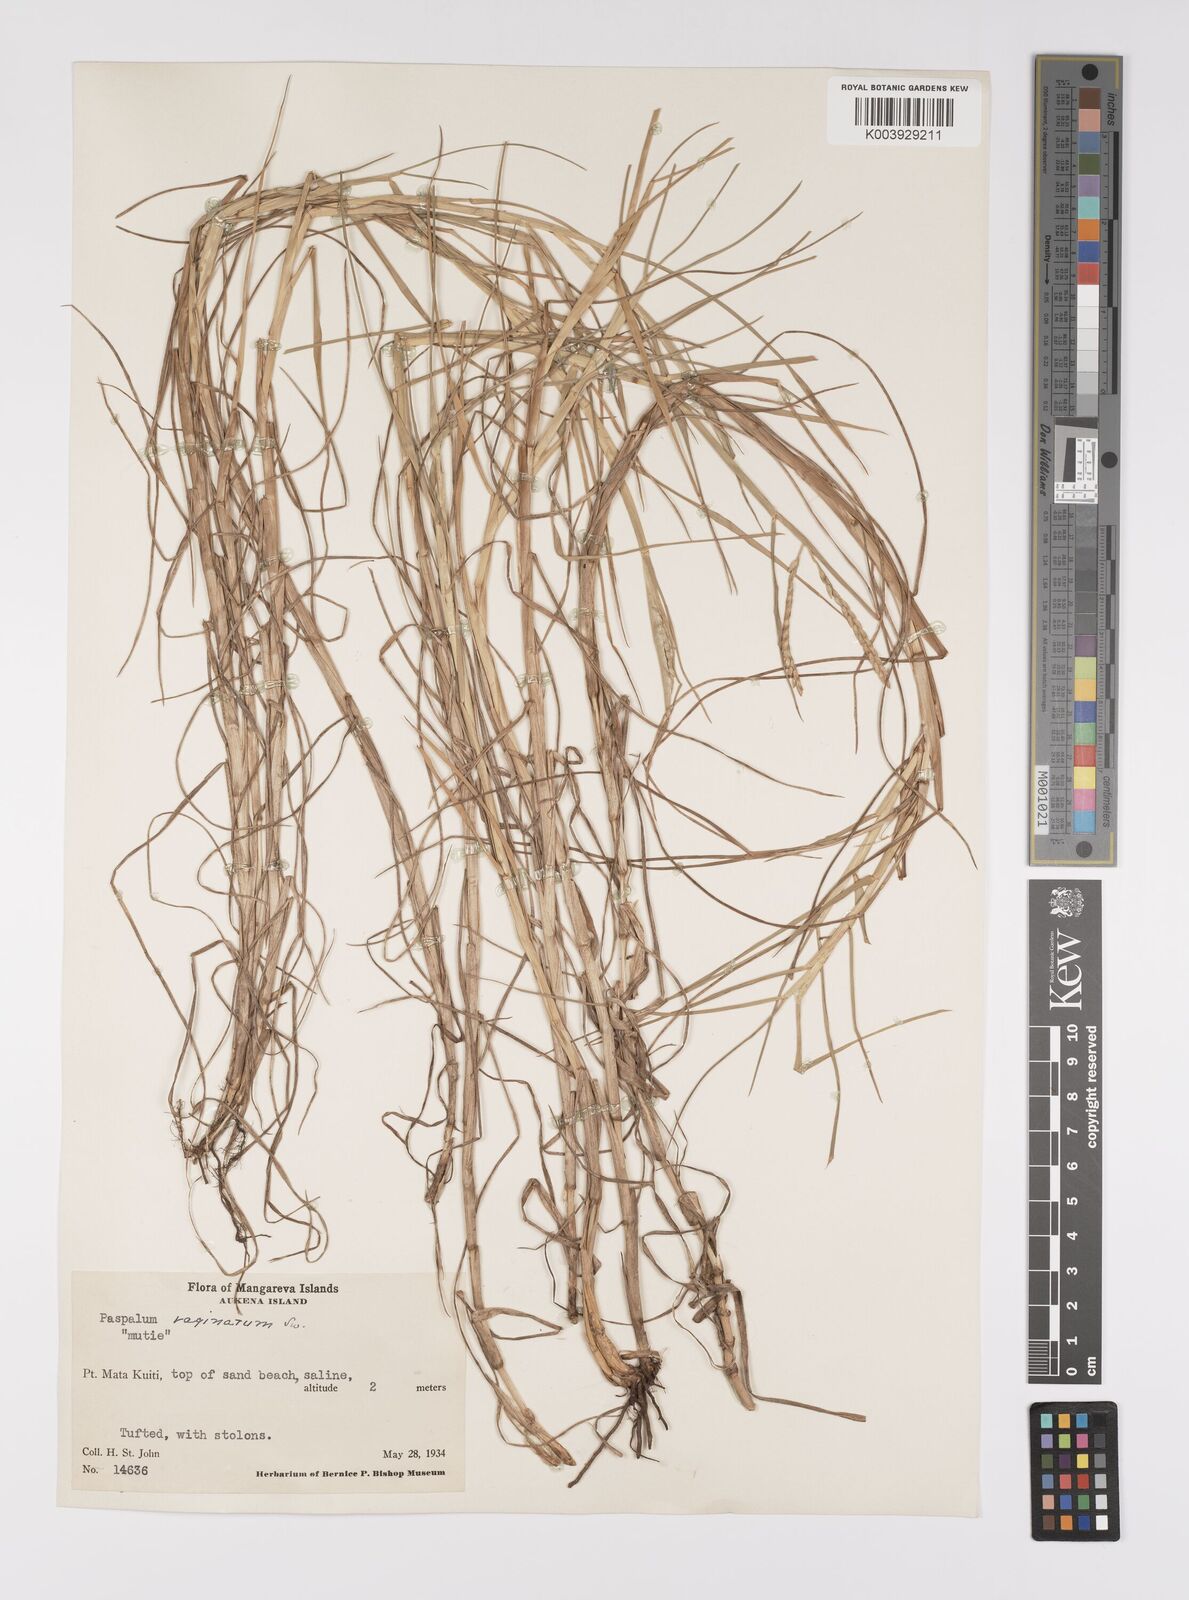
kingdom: Plantae
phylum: Tracheophyta
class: Liliopsida
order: Poales
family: Poaceae
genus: Paspalum
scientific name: Paspalum vaginatum
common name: Seashore paspalum
